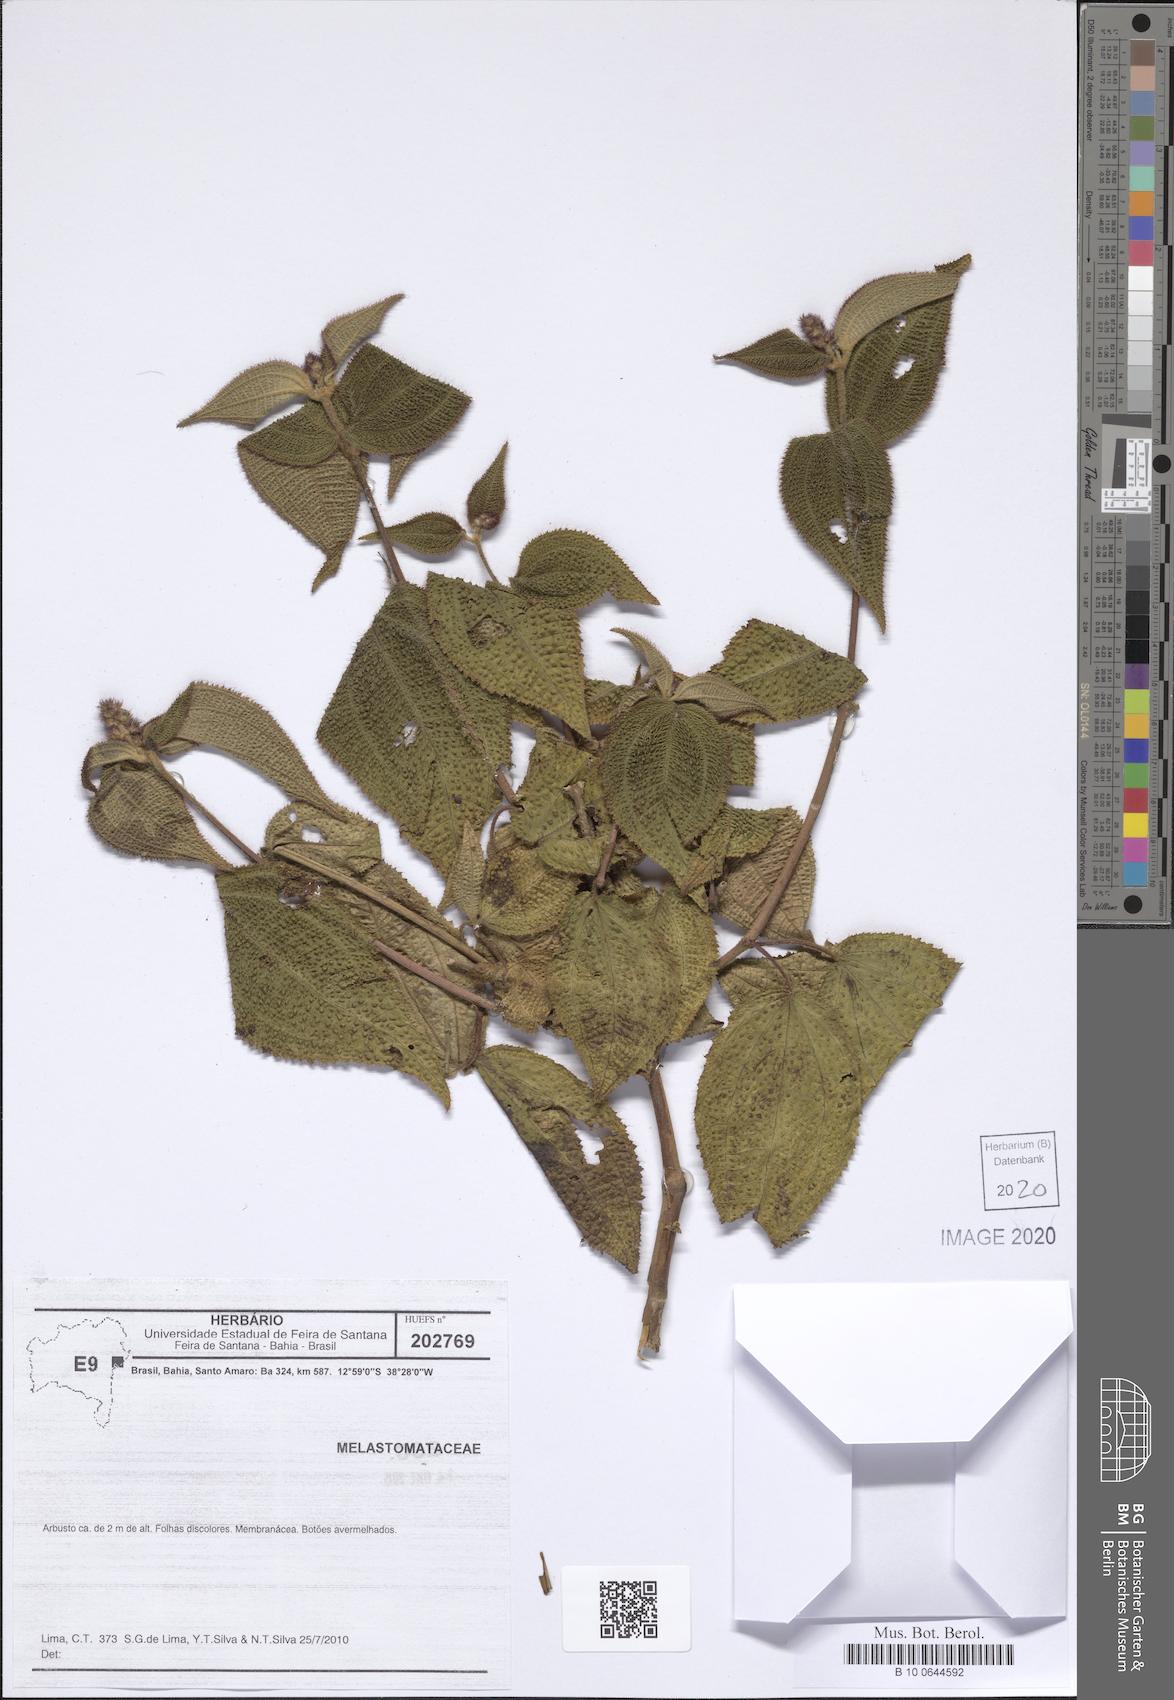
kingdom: Plantae
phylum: Tracheophyta
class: Magnoliopsida
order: Myrtales
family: Melastomataceae
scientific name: Melastomataceae
